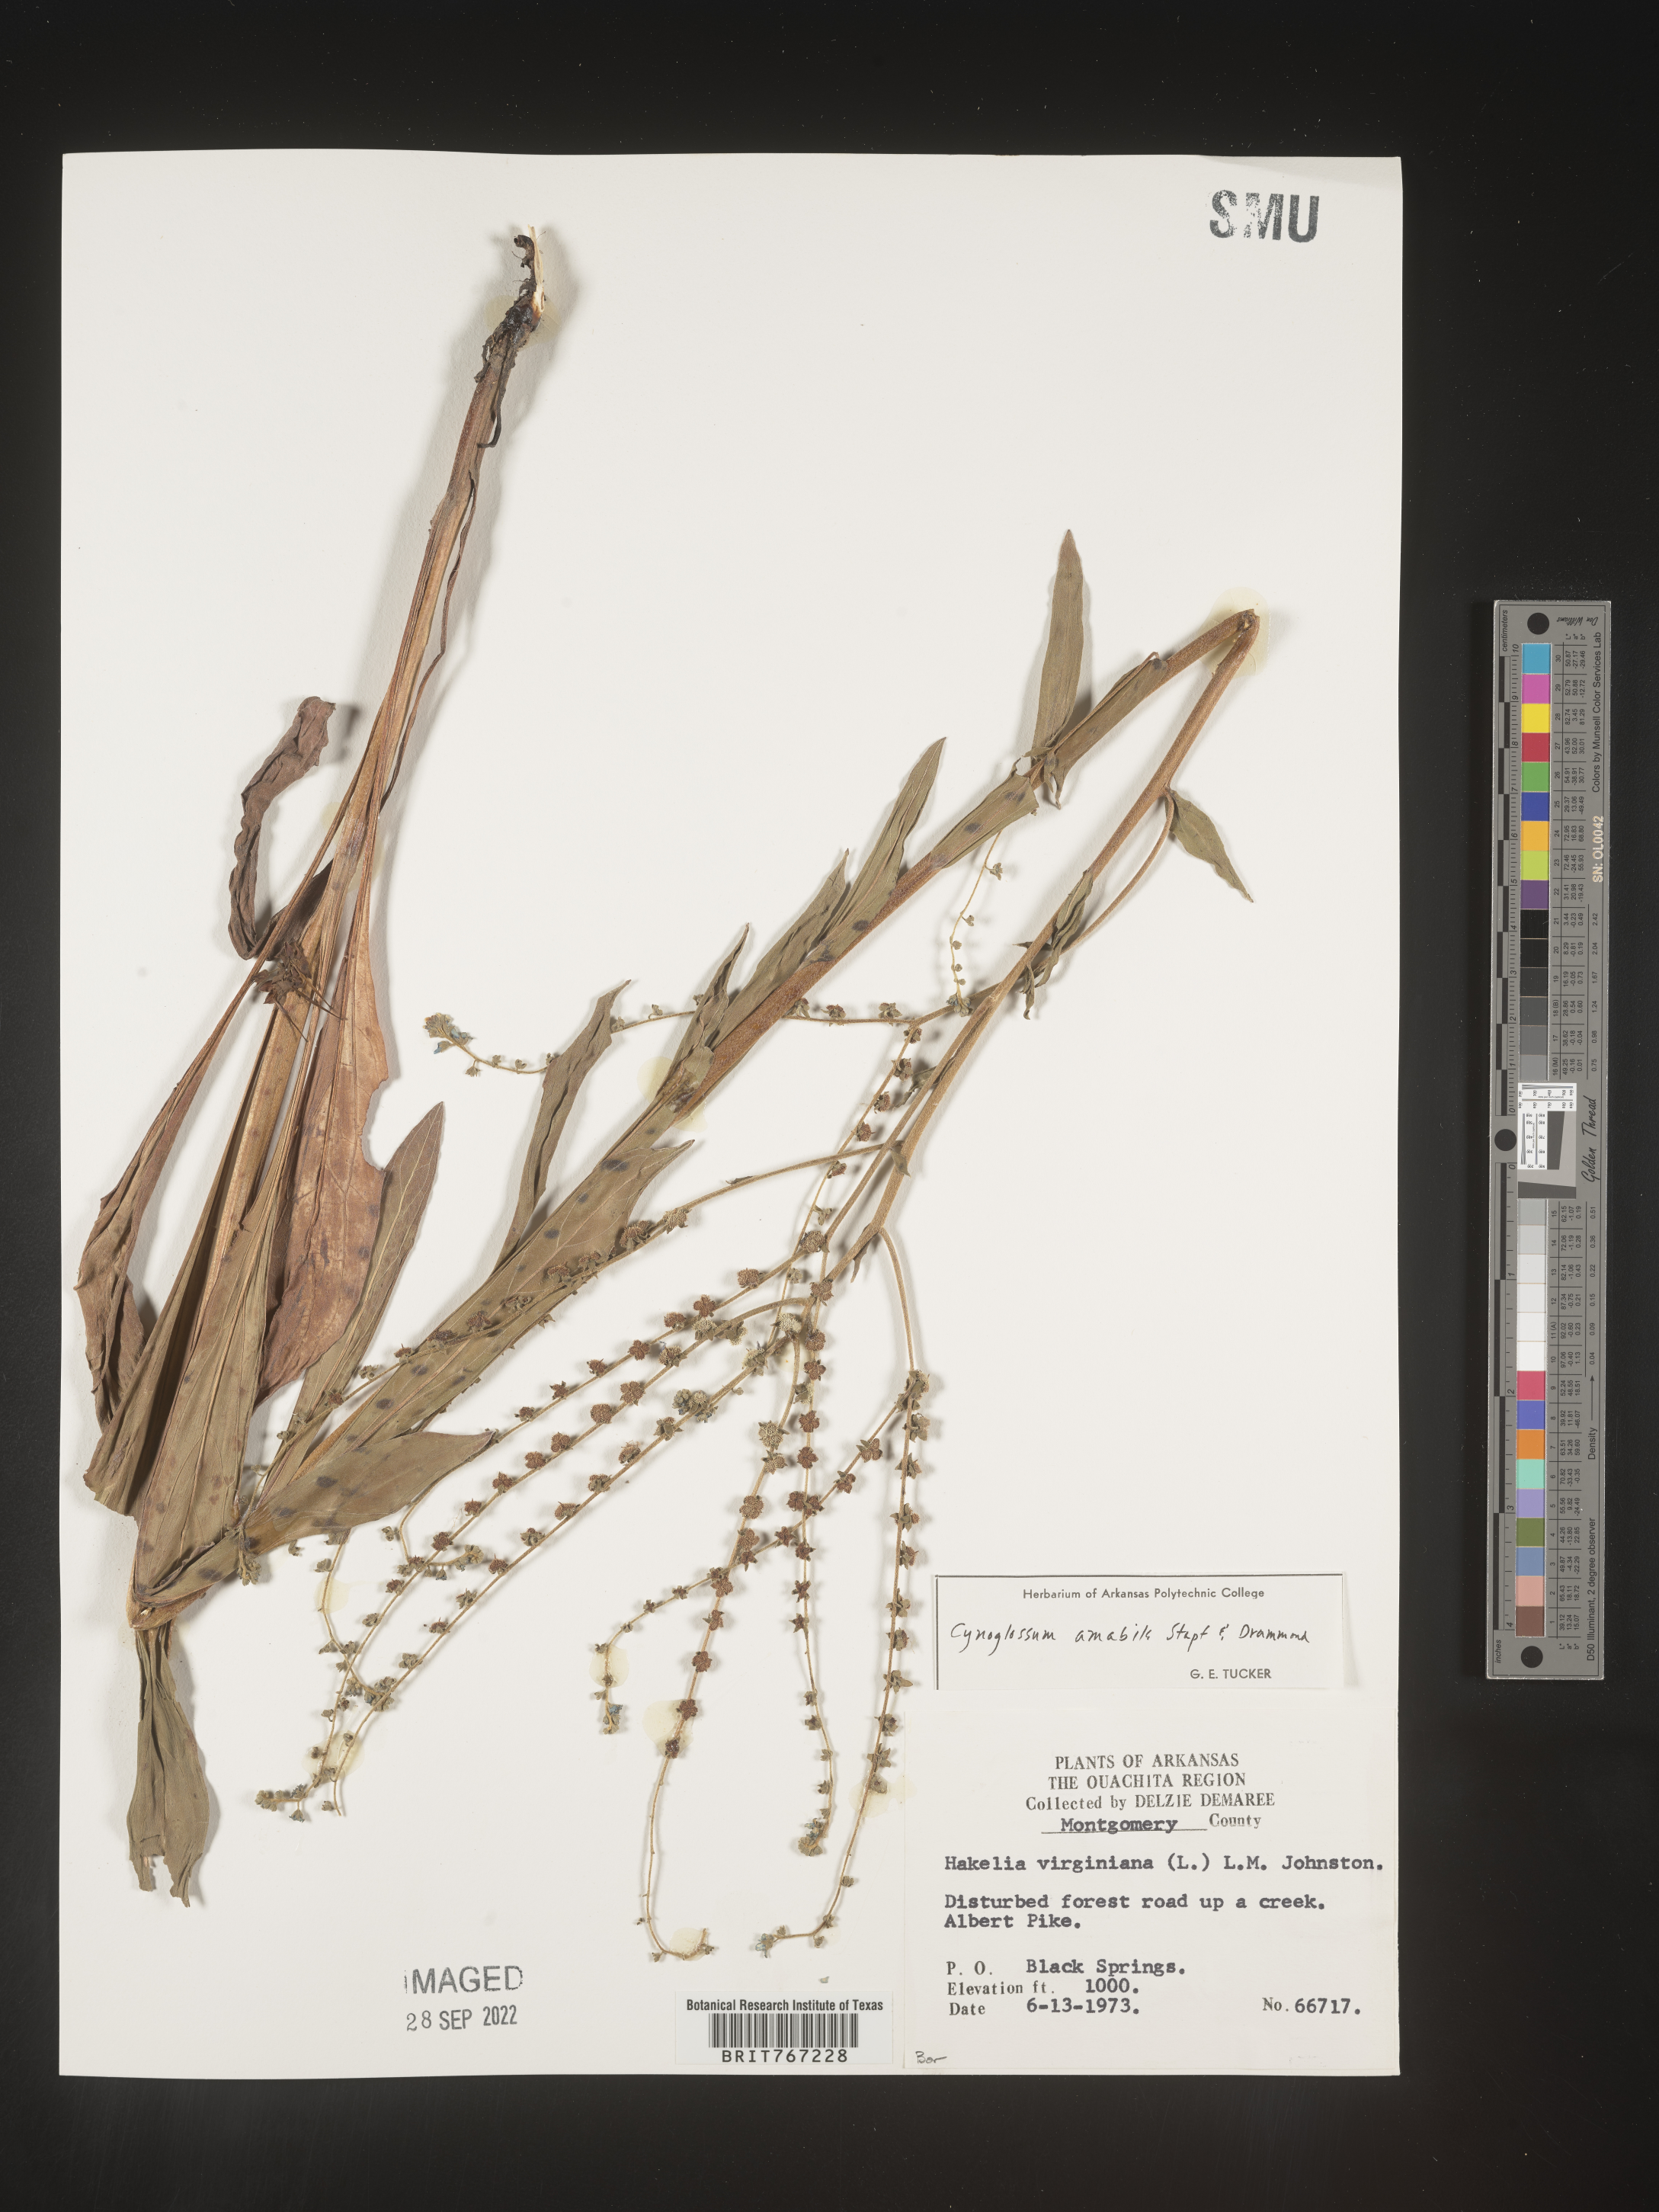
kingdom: Plantae
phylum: Tracheophyta
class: Magnoliopsida
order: Boraginales
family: Boraginaceae
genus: Cynoglossum
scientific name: Cynoglossum
